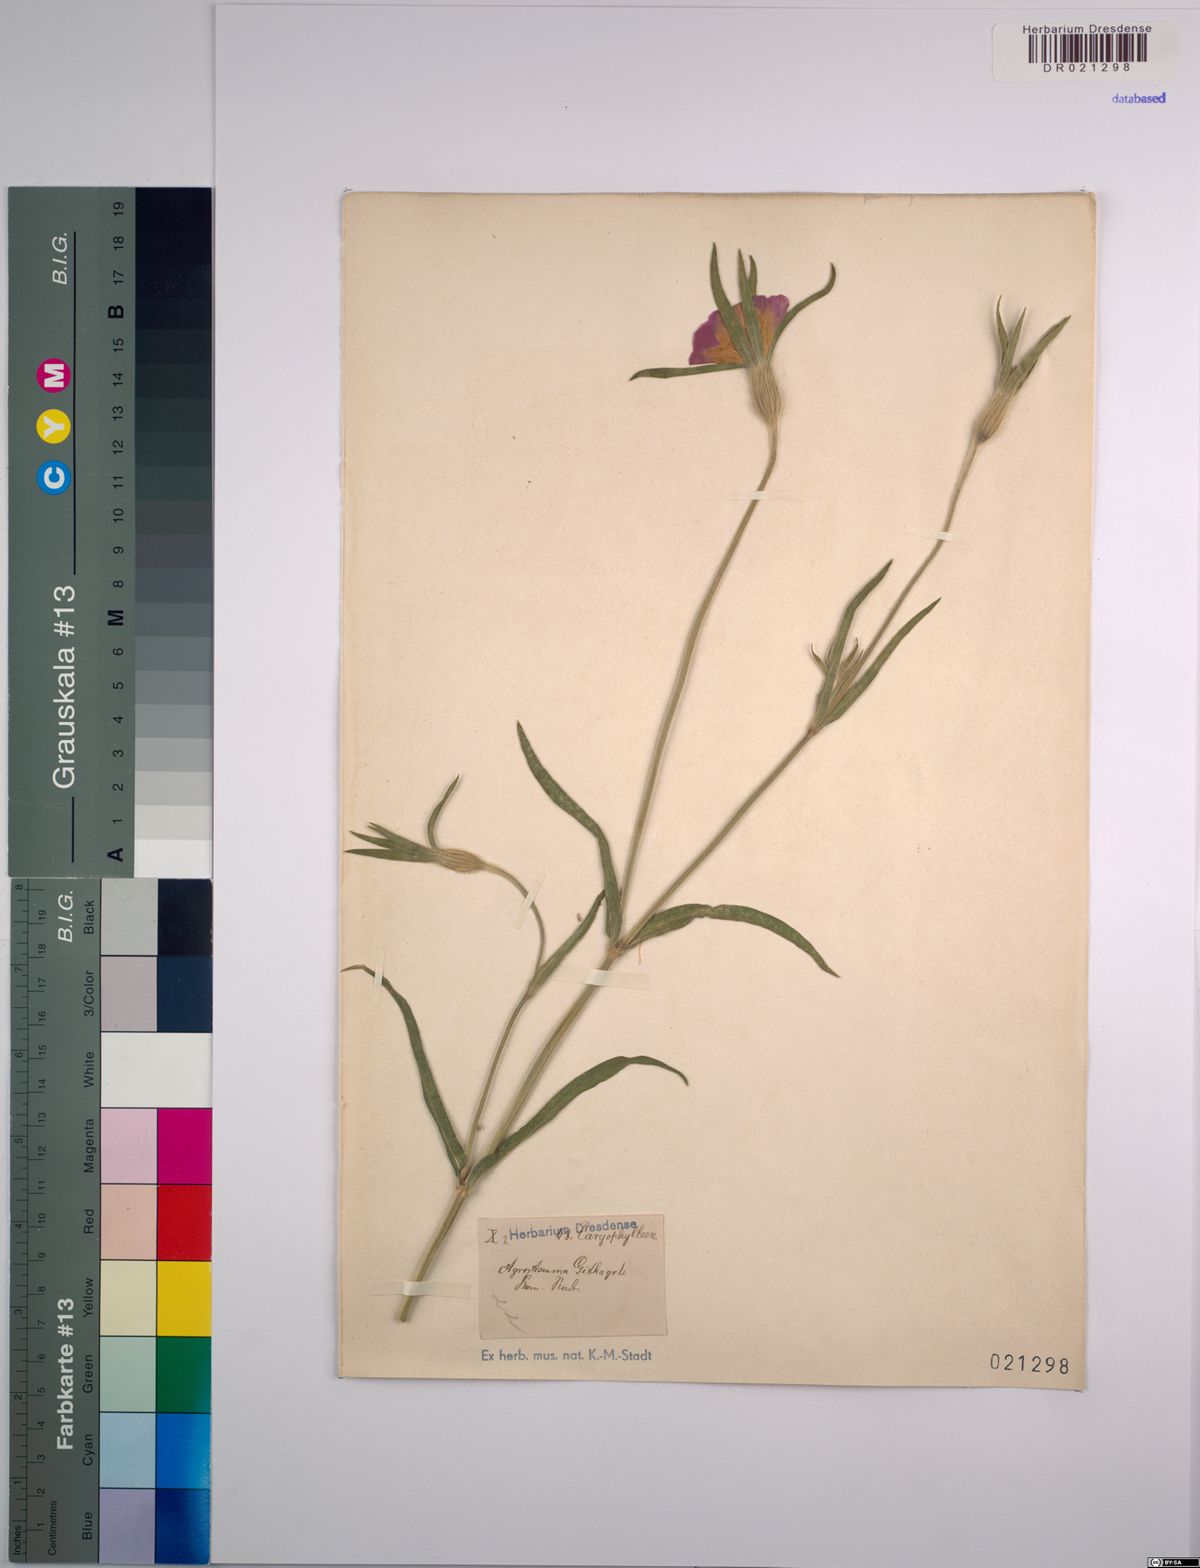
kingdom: Plantae
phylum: Tracheophyta
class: Magnoliopsida
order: Caryophyllales
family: Caryophyllaceae
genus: Agrostemma
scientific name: Agrostemma githago
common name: Common corncockle
